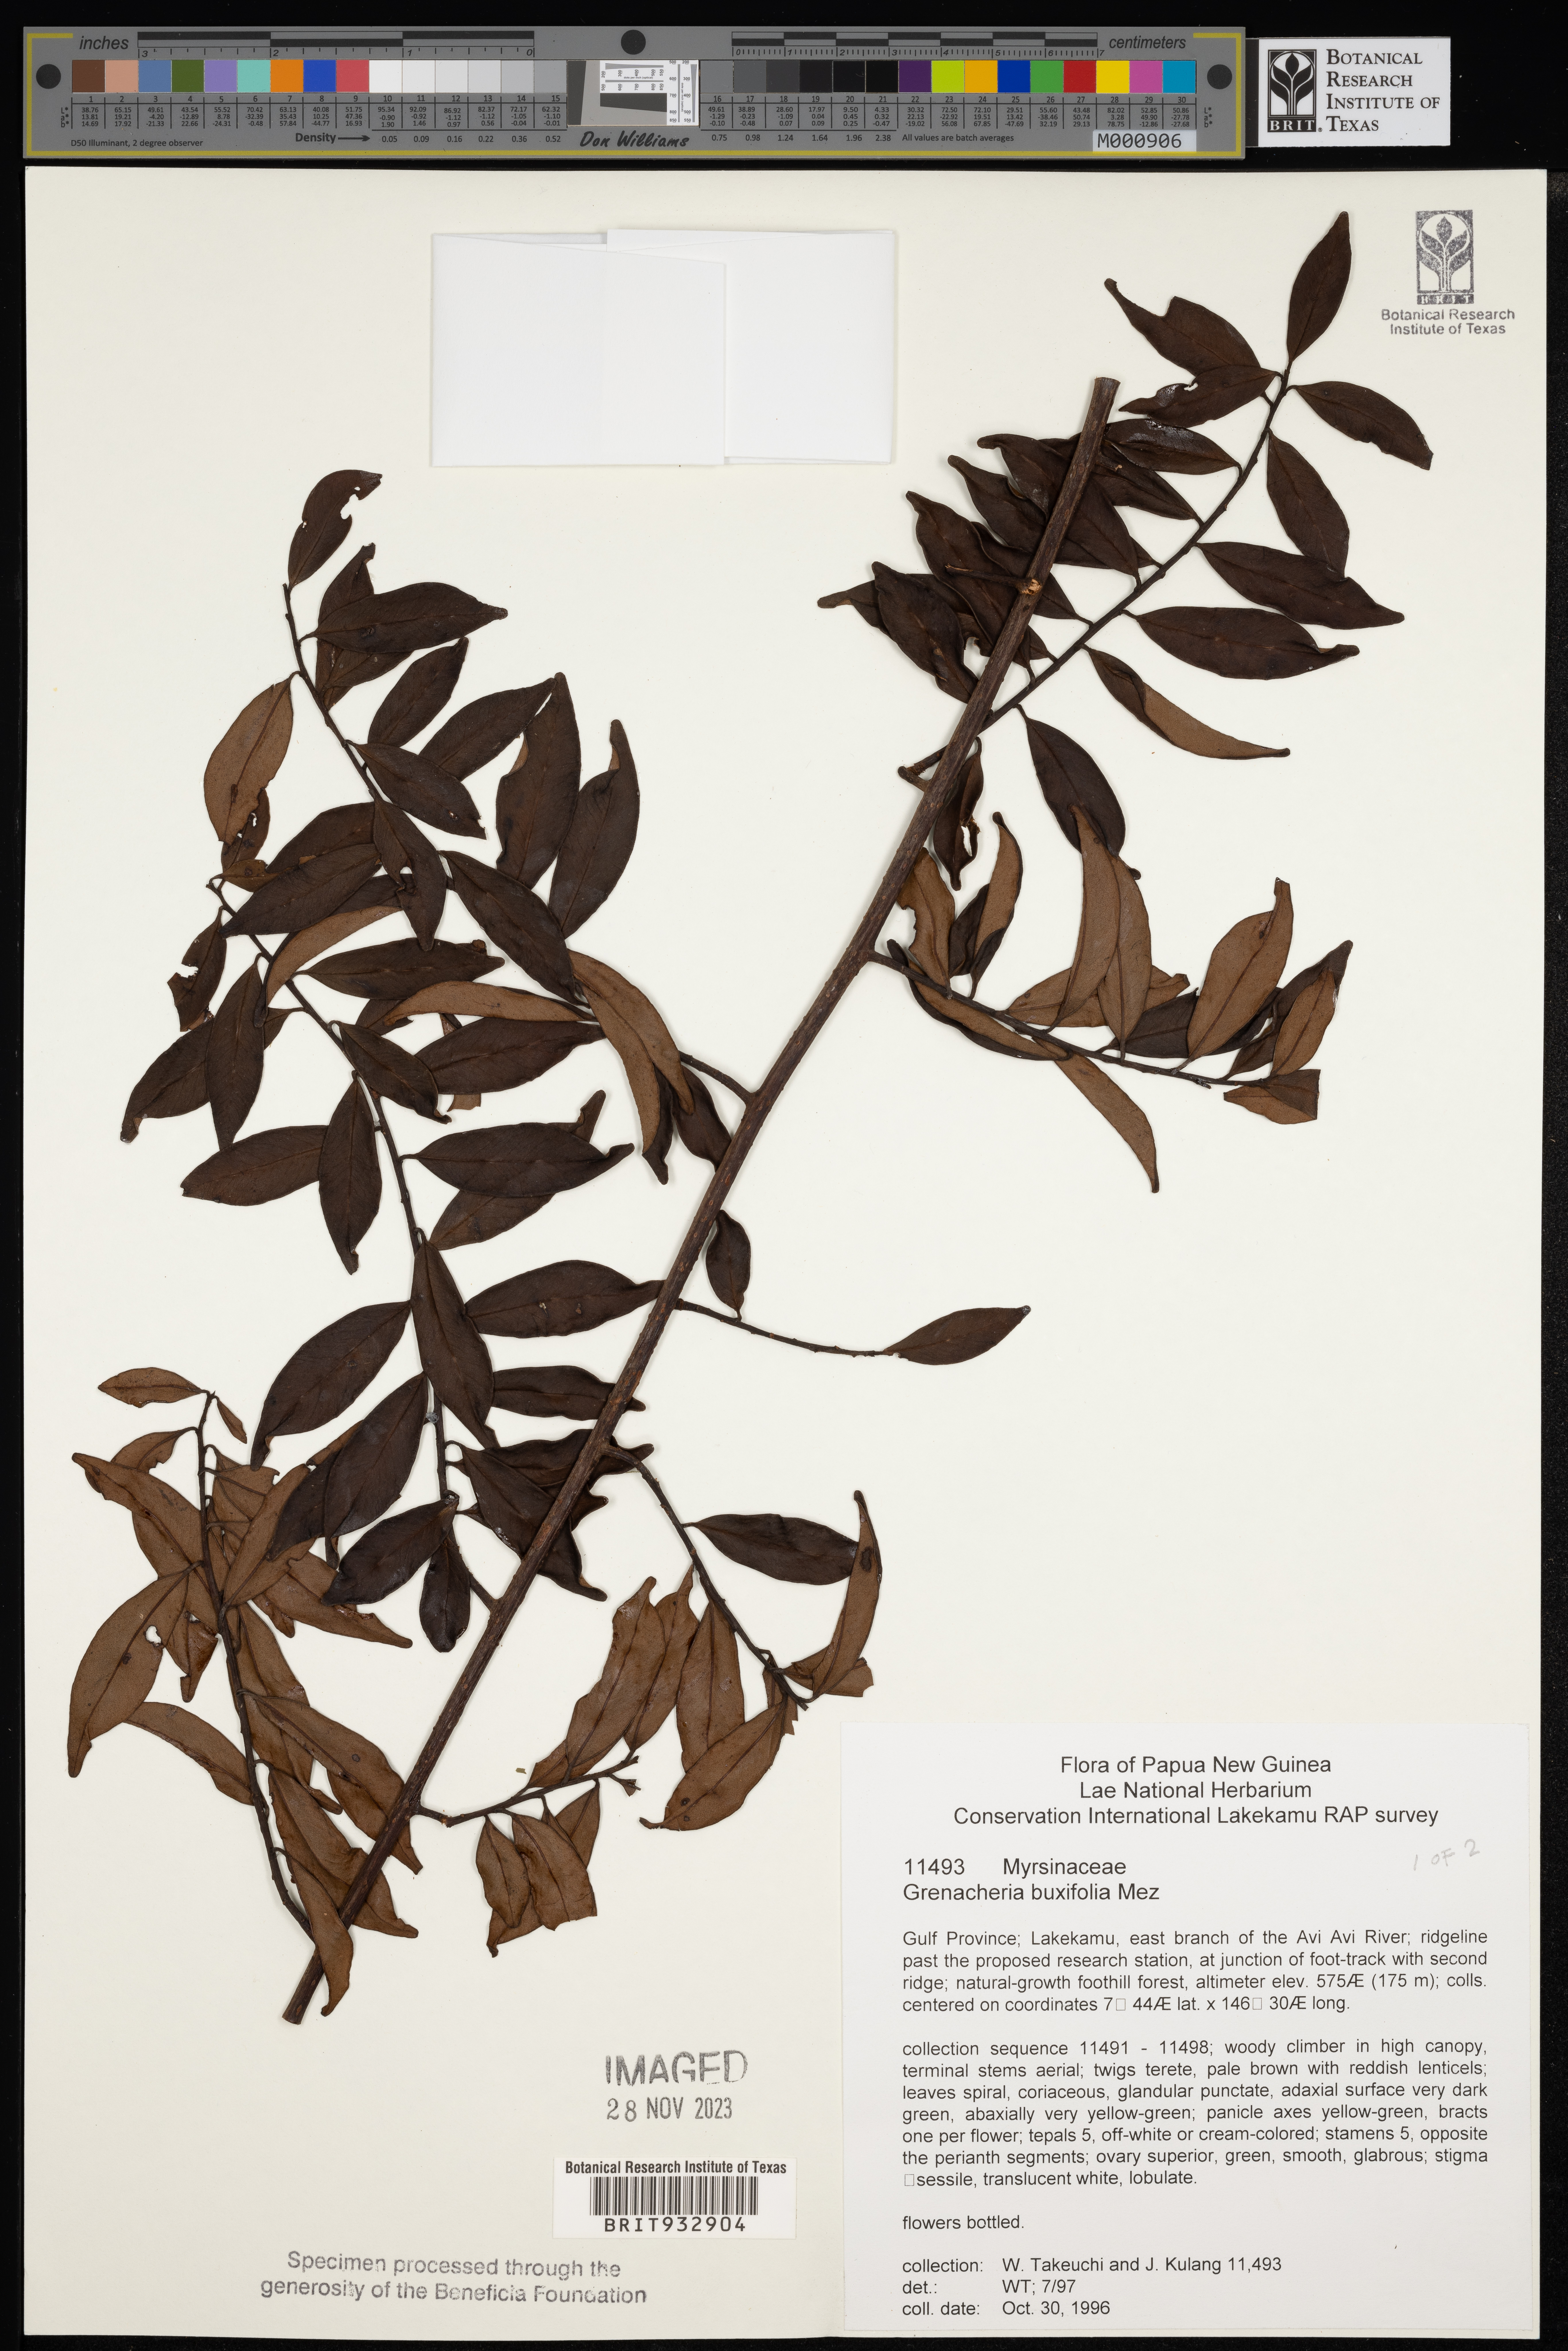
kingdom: Plantae
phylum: Tracheophyta
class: Magnoliopsida
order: Ericales
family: Primulaceae
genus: Grenacheria
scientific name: Grenacheria
